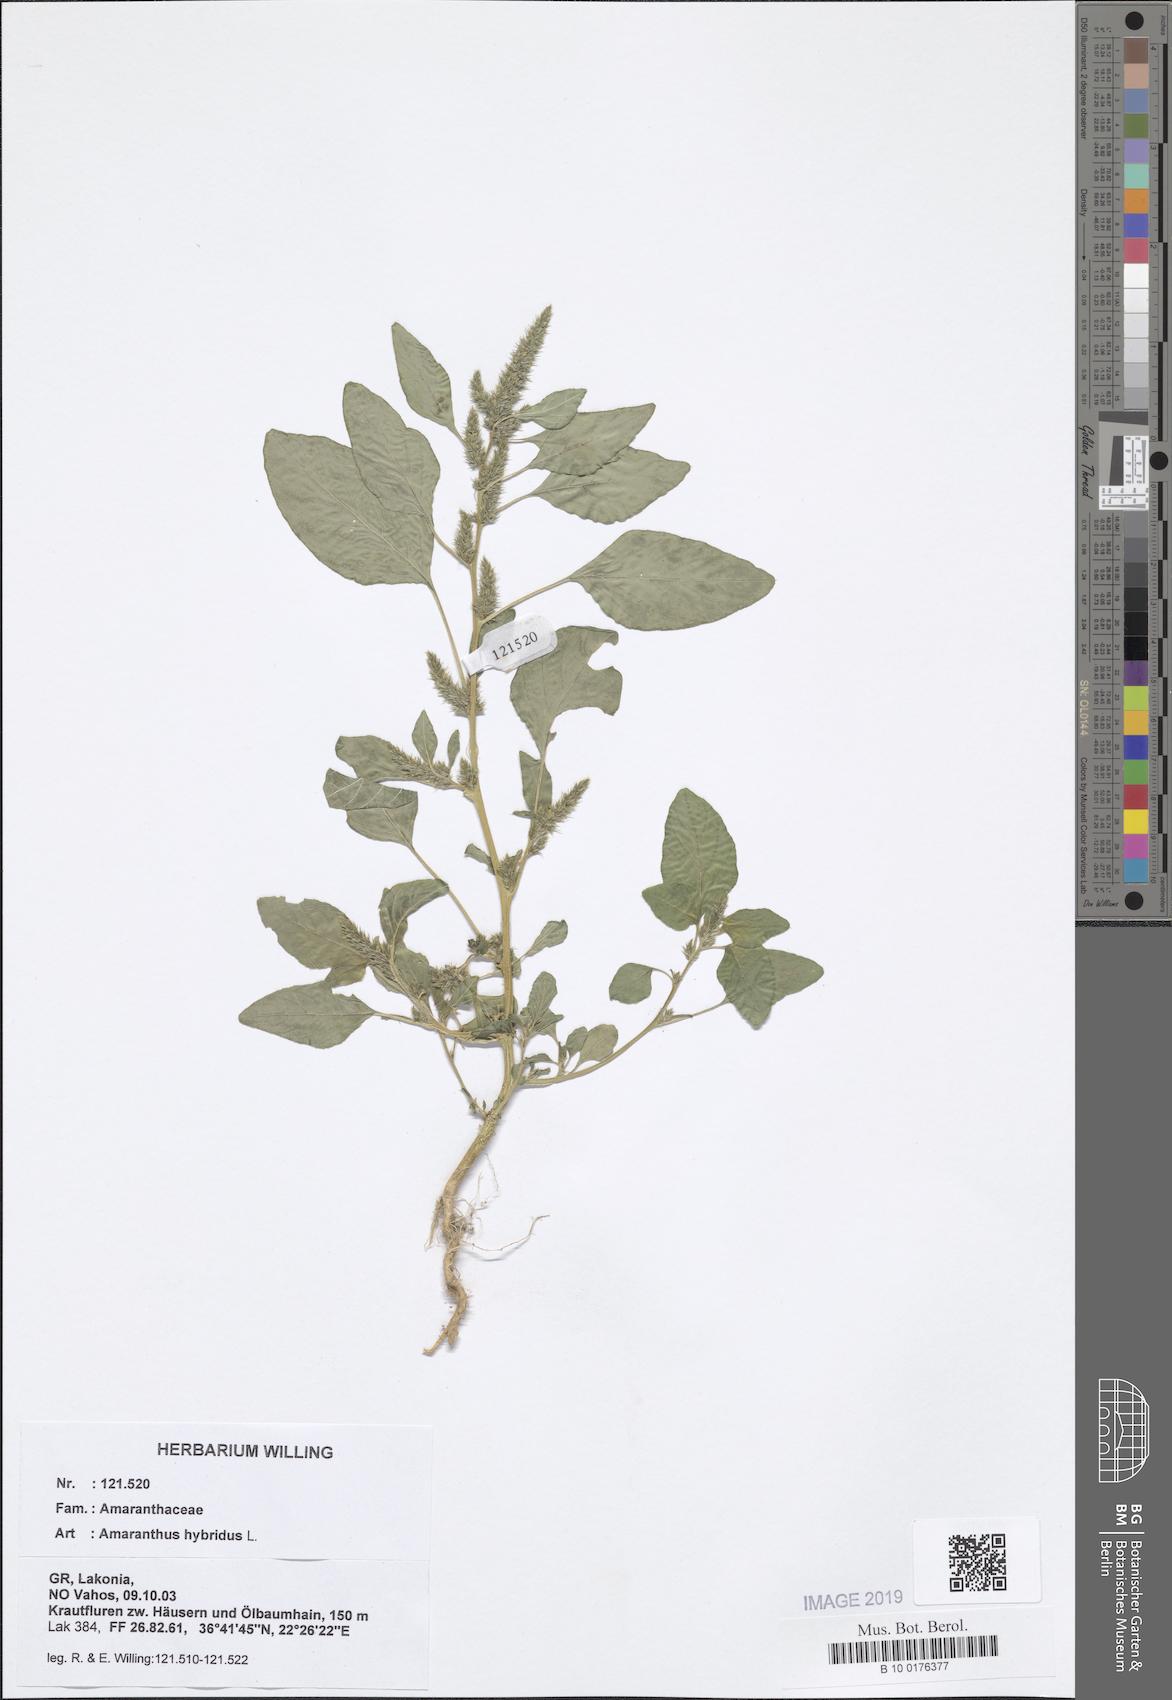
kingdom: Plantae
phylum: Tracheophyta
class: Magnoliopsida
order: Caryophyllales
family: Amaranthaceae
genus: Amaranthus
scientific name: Amaranthus hybridus
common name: Green amaranth
